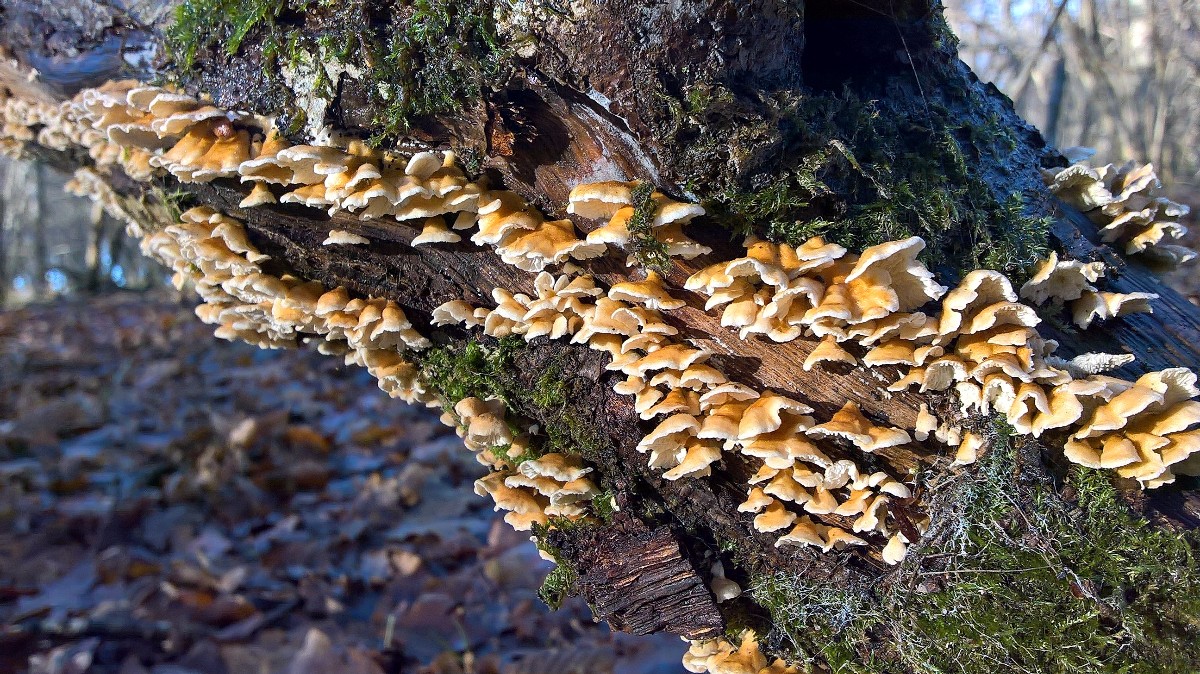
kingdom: Fungi
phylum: Basidiomycota
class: Agaricomycetes
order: Amylocorticiales
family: Amylocorticiaceae
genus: Plicaturopsis
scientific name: Plicaturopsis crispa
